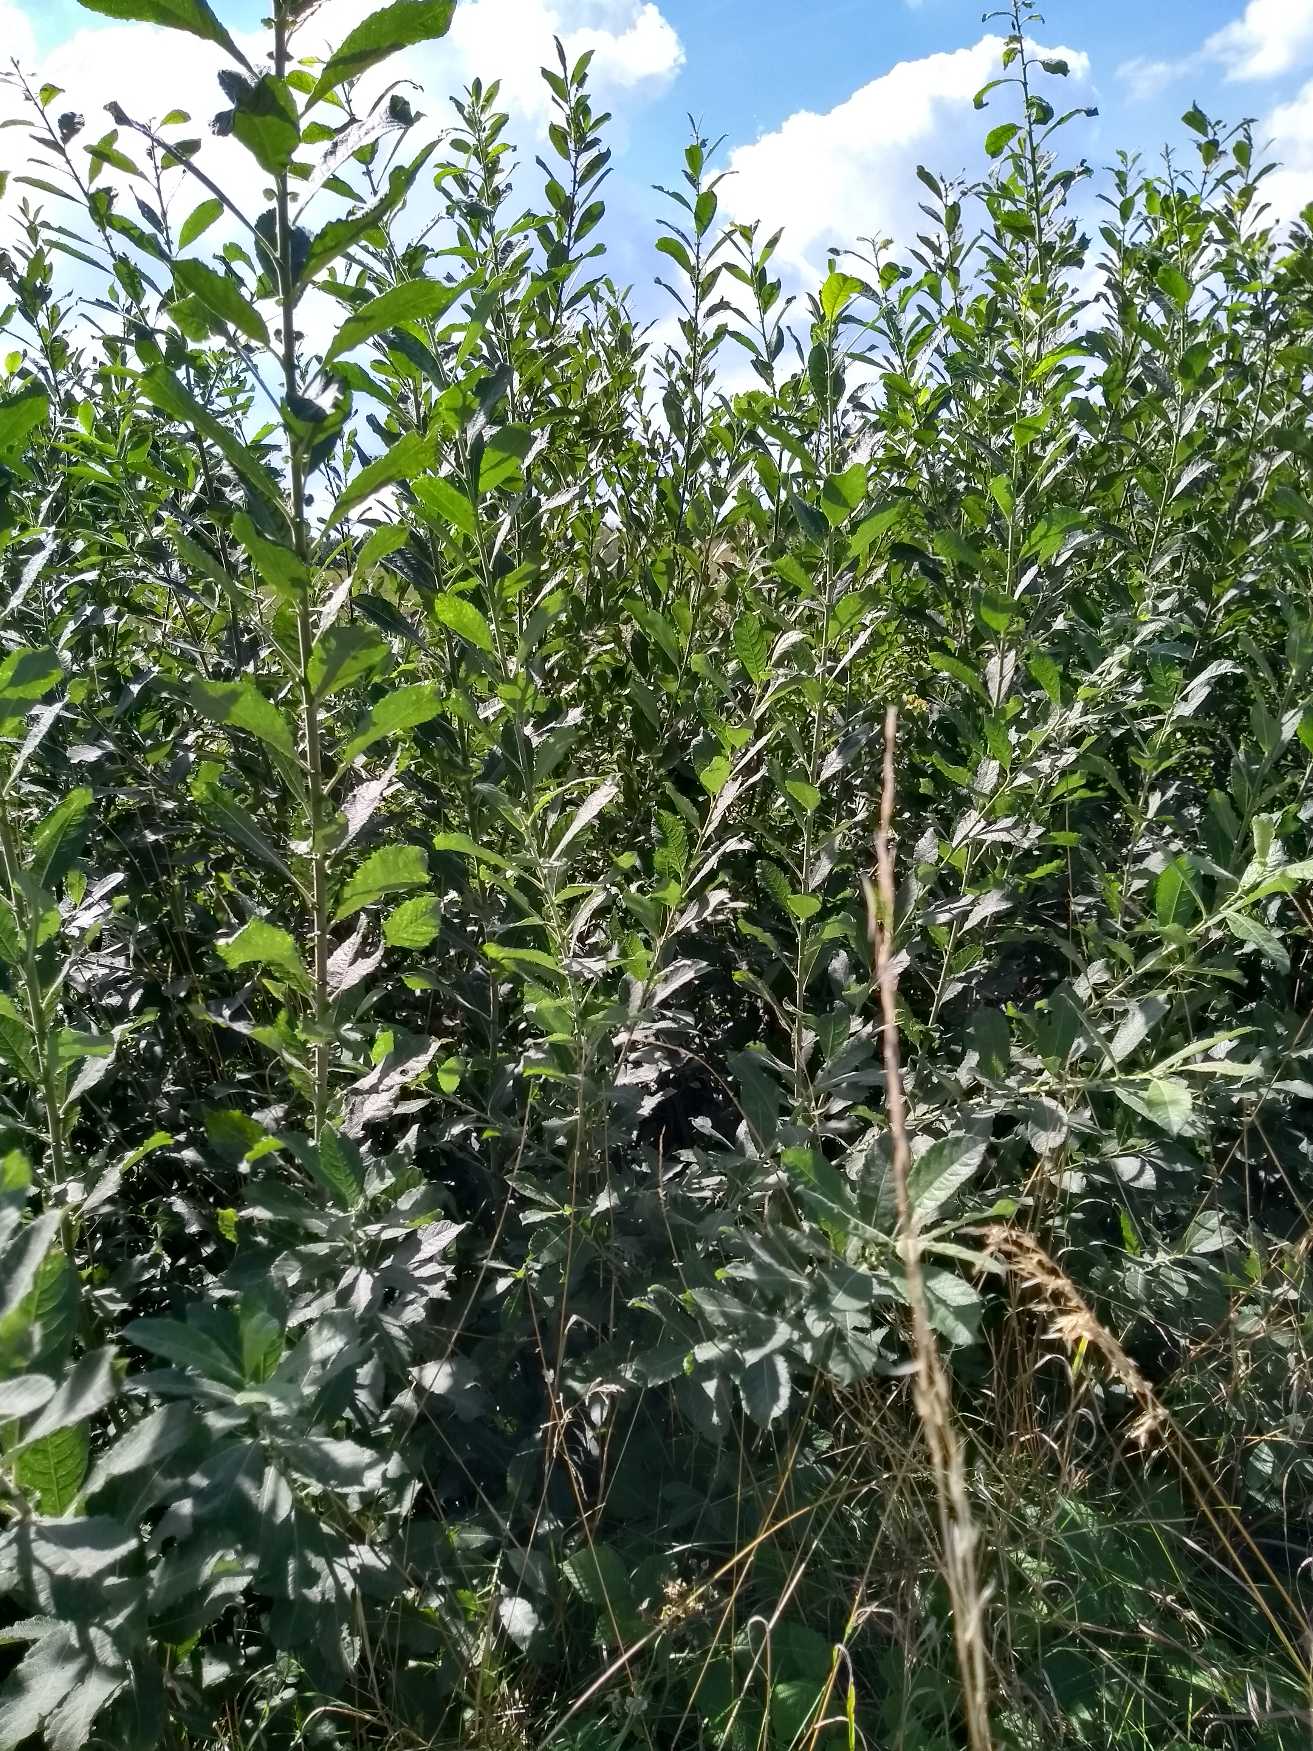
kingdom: Plantae
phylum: Tracheophyta
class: Magnoliopsida
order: Malpighiales
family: Salicaceae
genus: Salix
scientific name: Salix cinerea
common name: Grå-pil
